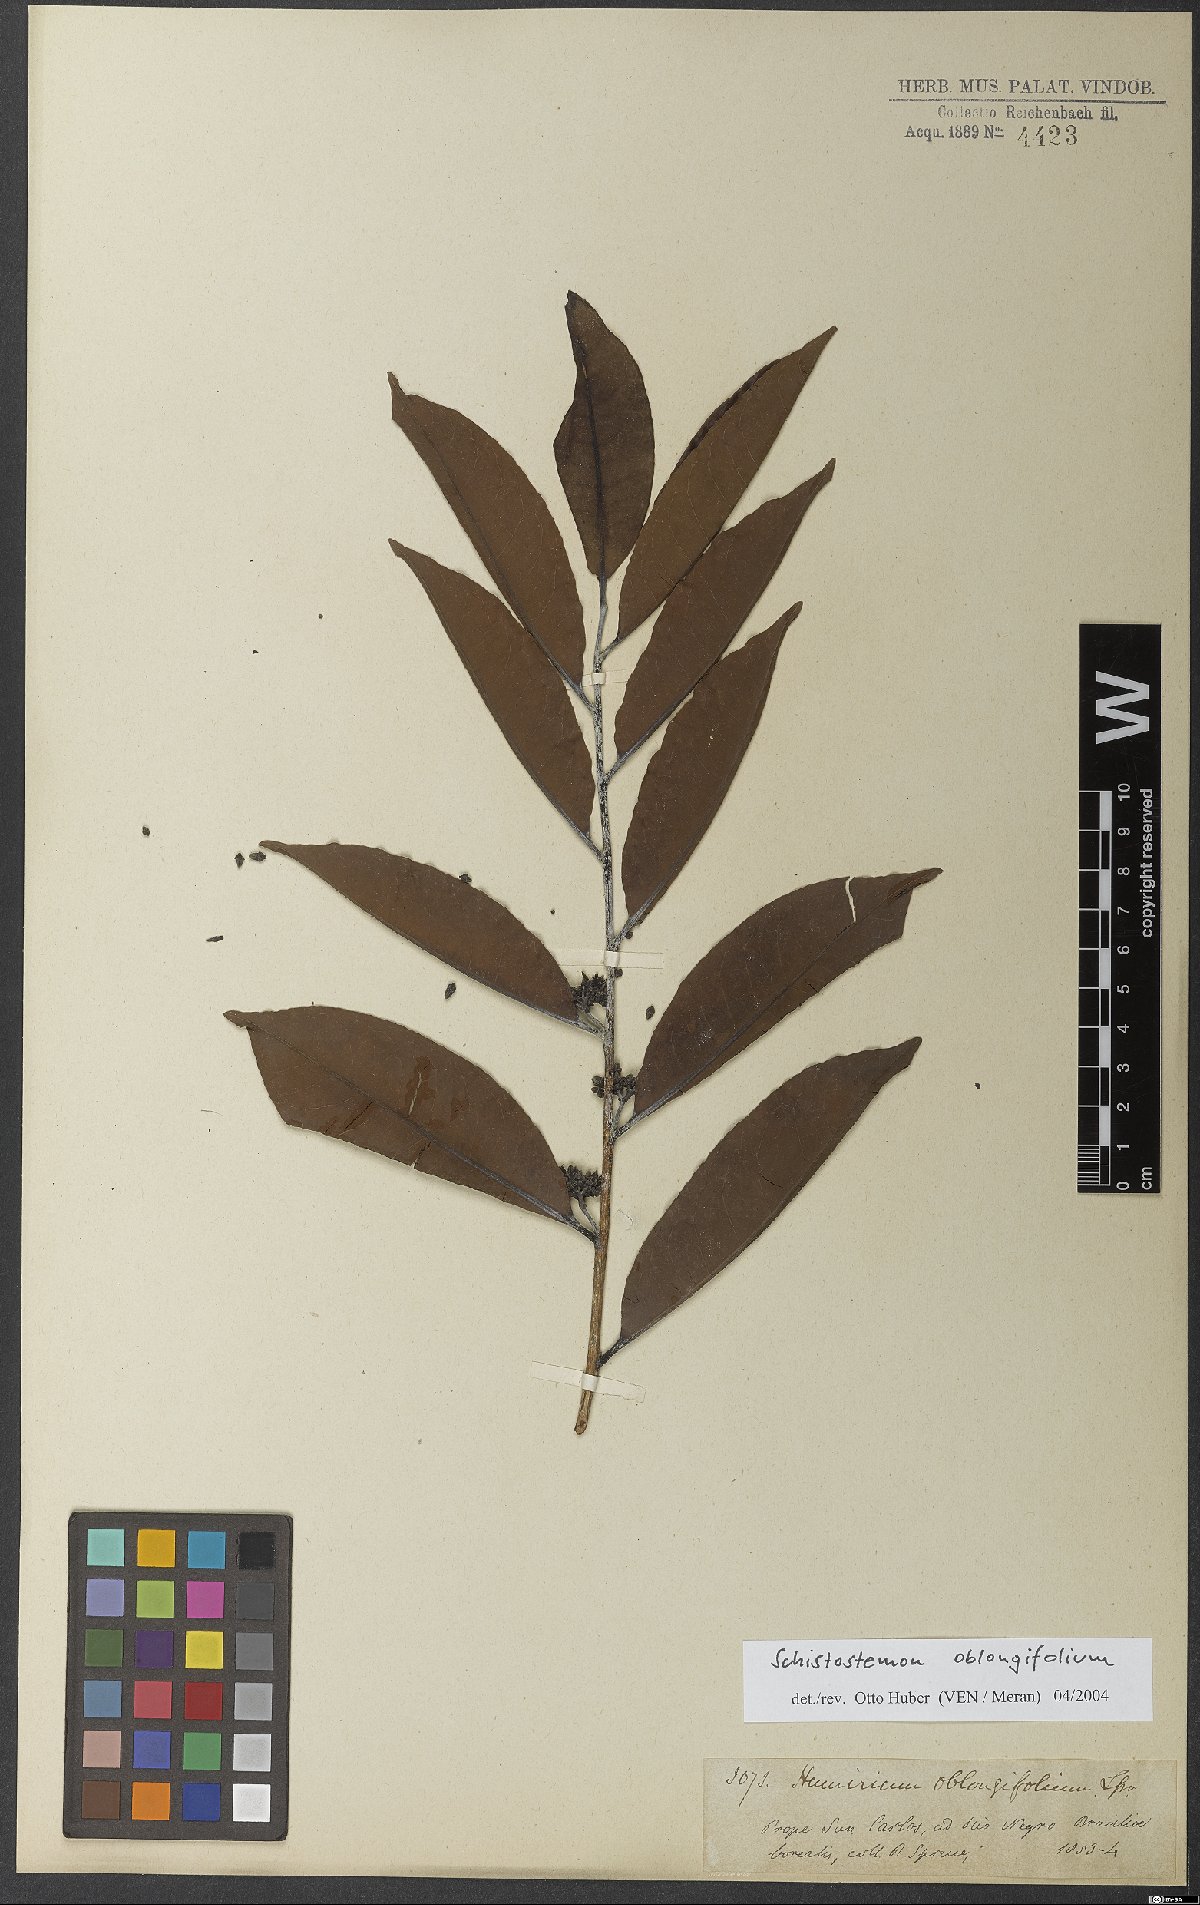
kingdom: Plantae
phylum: Tracheophyta
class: Magnoliopsida
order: Malpighiales
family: Humiriaceae
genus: Schistostemon
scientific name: Schistostemon oblongifolium
